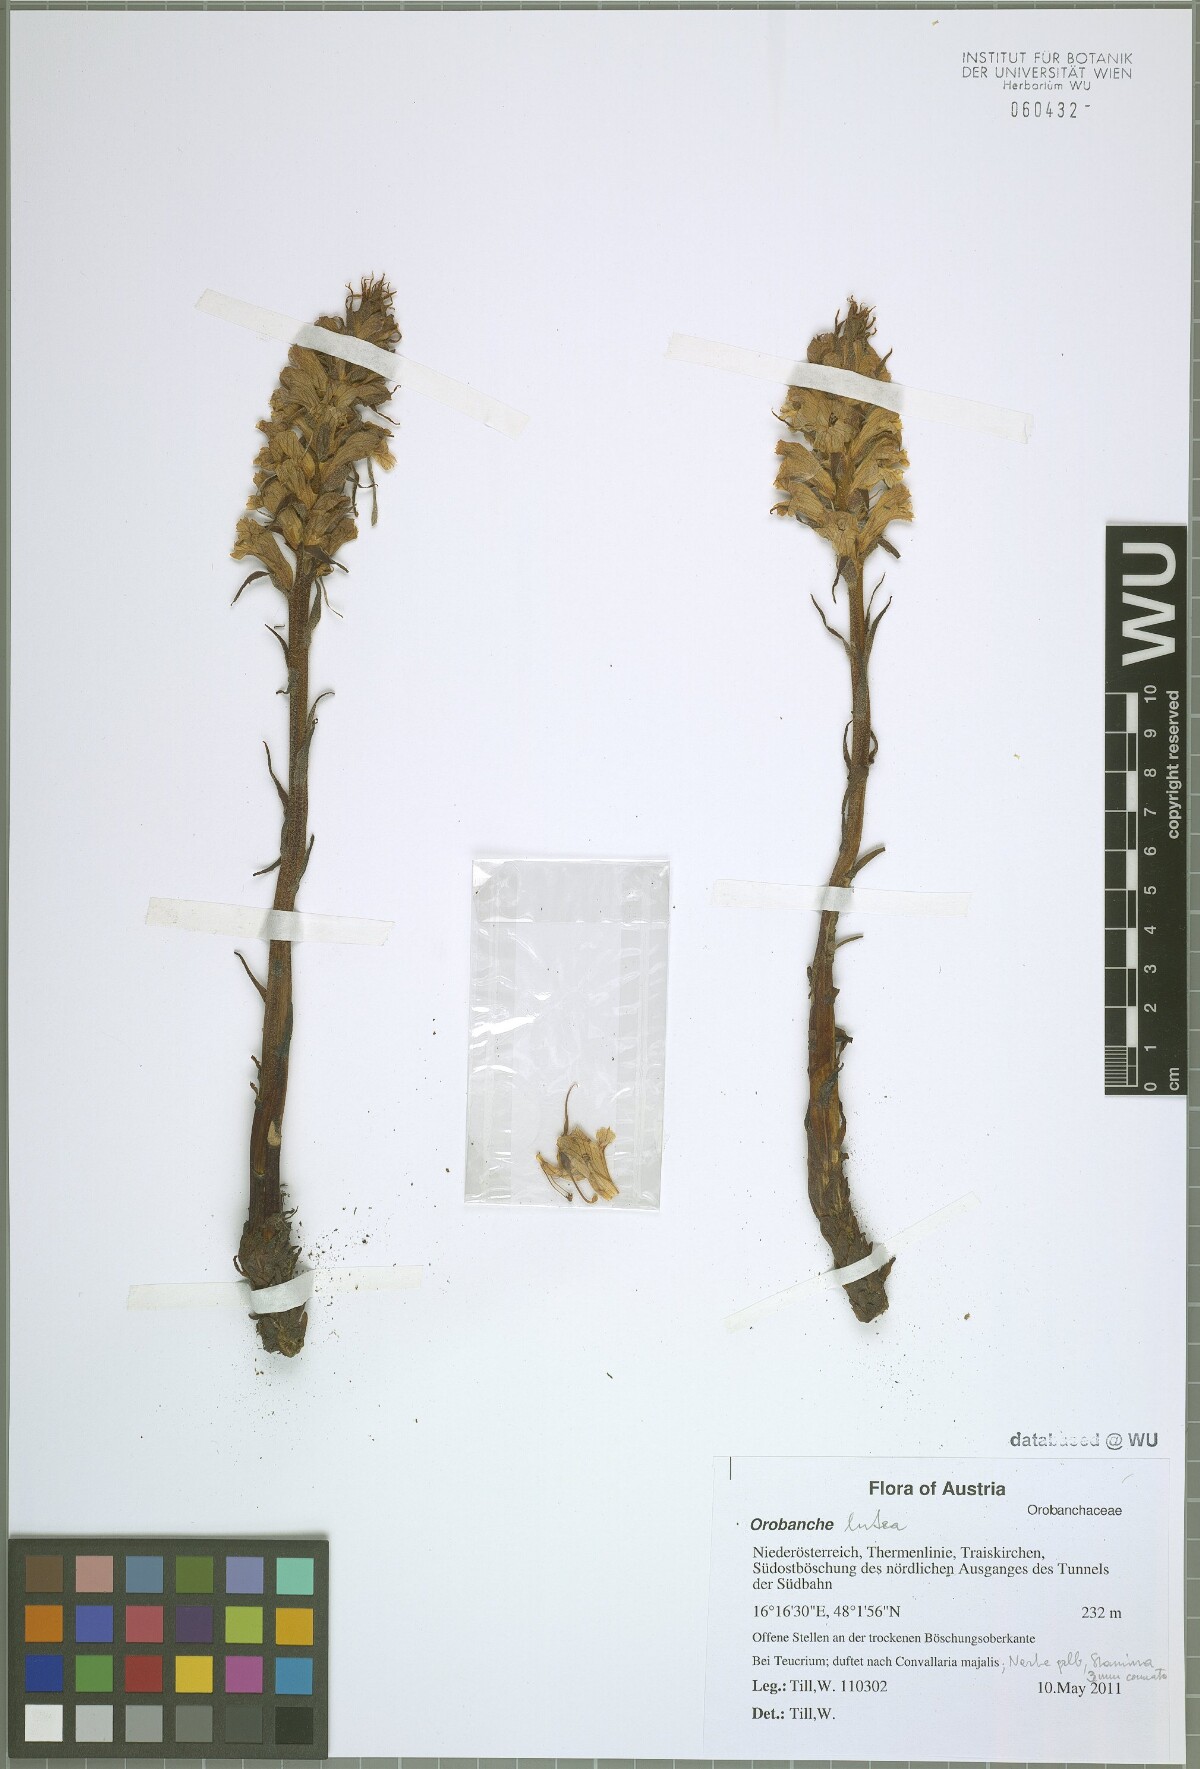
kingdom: Plantae
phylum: Tracheophyta
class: Magnoliopsida
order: Lamiales
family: Orobanchaceae
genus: Orobanche
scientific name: Orobanche lutea
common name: Yellow broomrape
